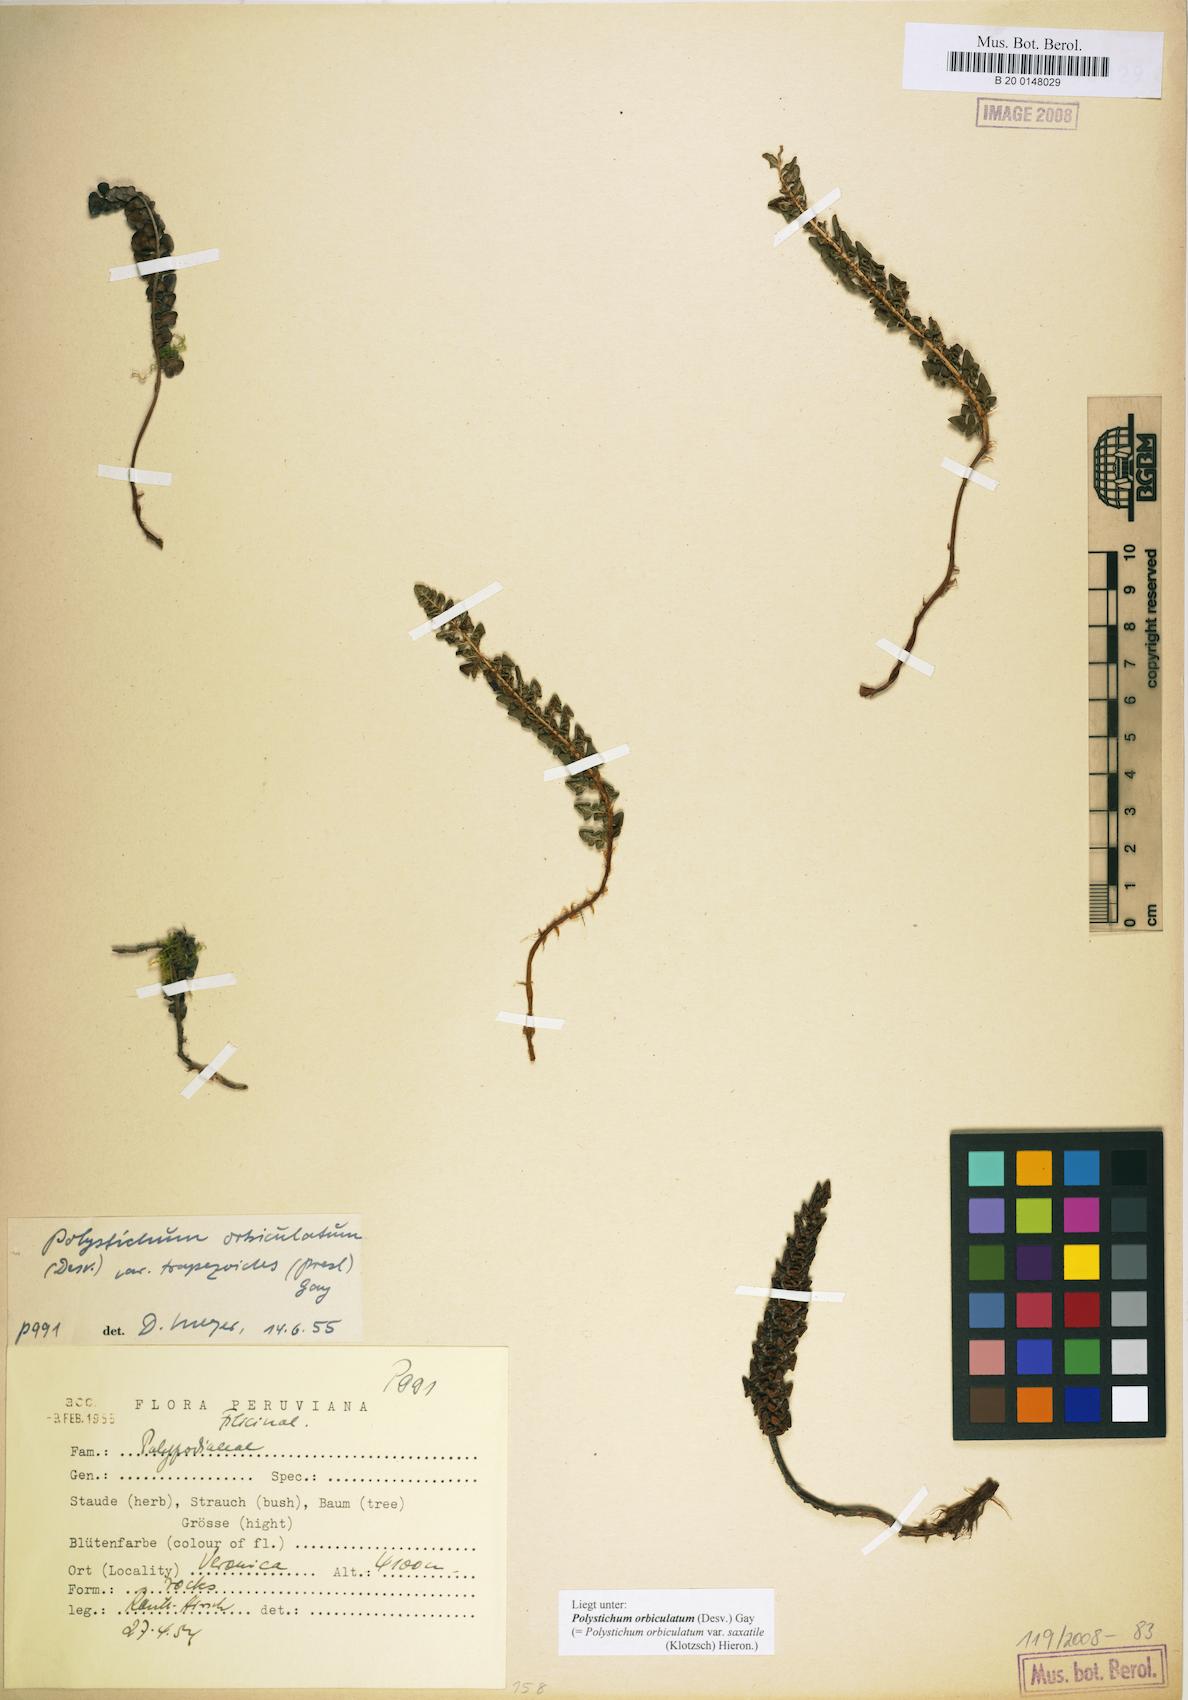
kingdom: Plantae
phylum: Tracheophyta
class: Polypodiopsida
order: Polypodiales
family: Dryopteridaceae
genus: Polystichum
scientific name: Polystichum orbiculatum
